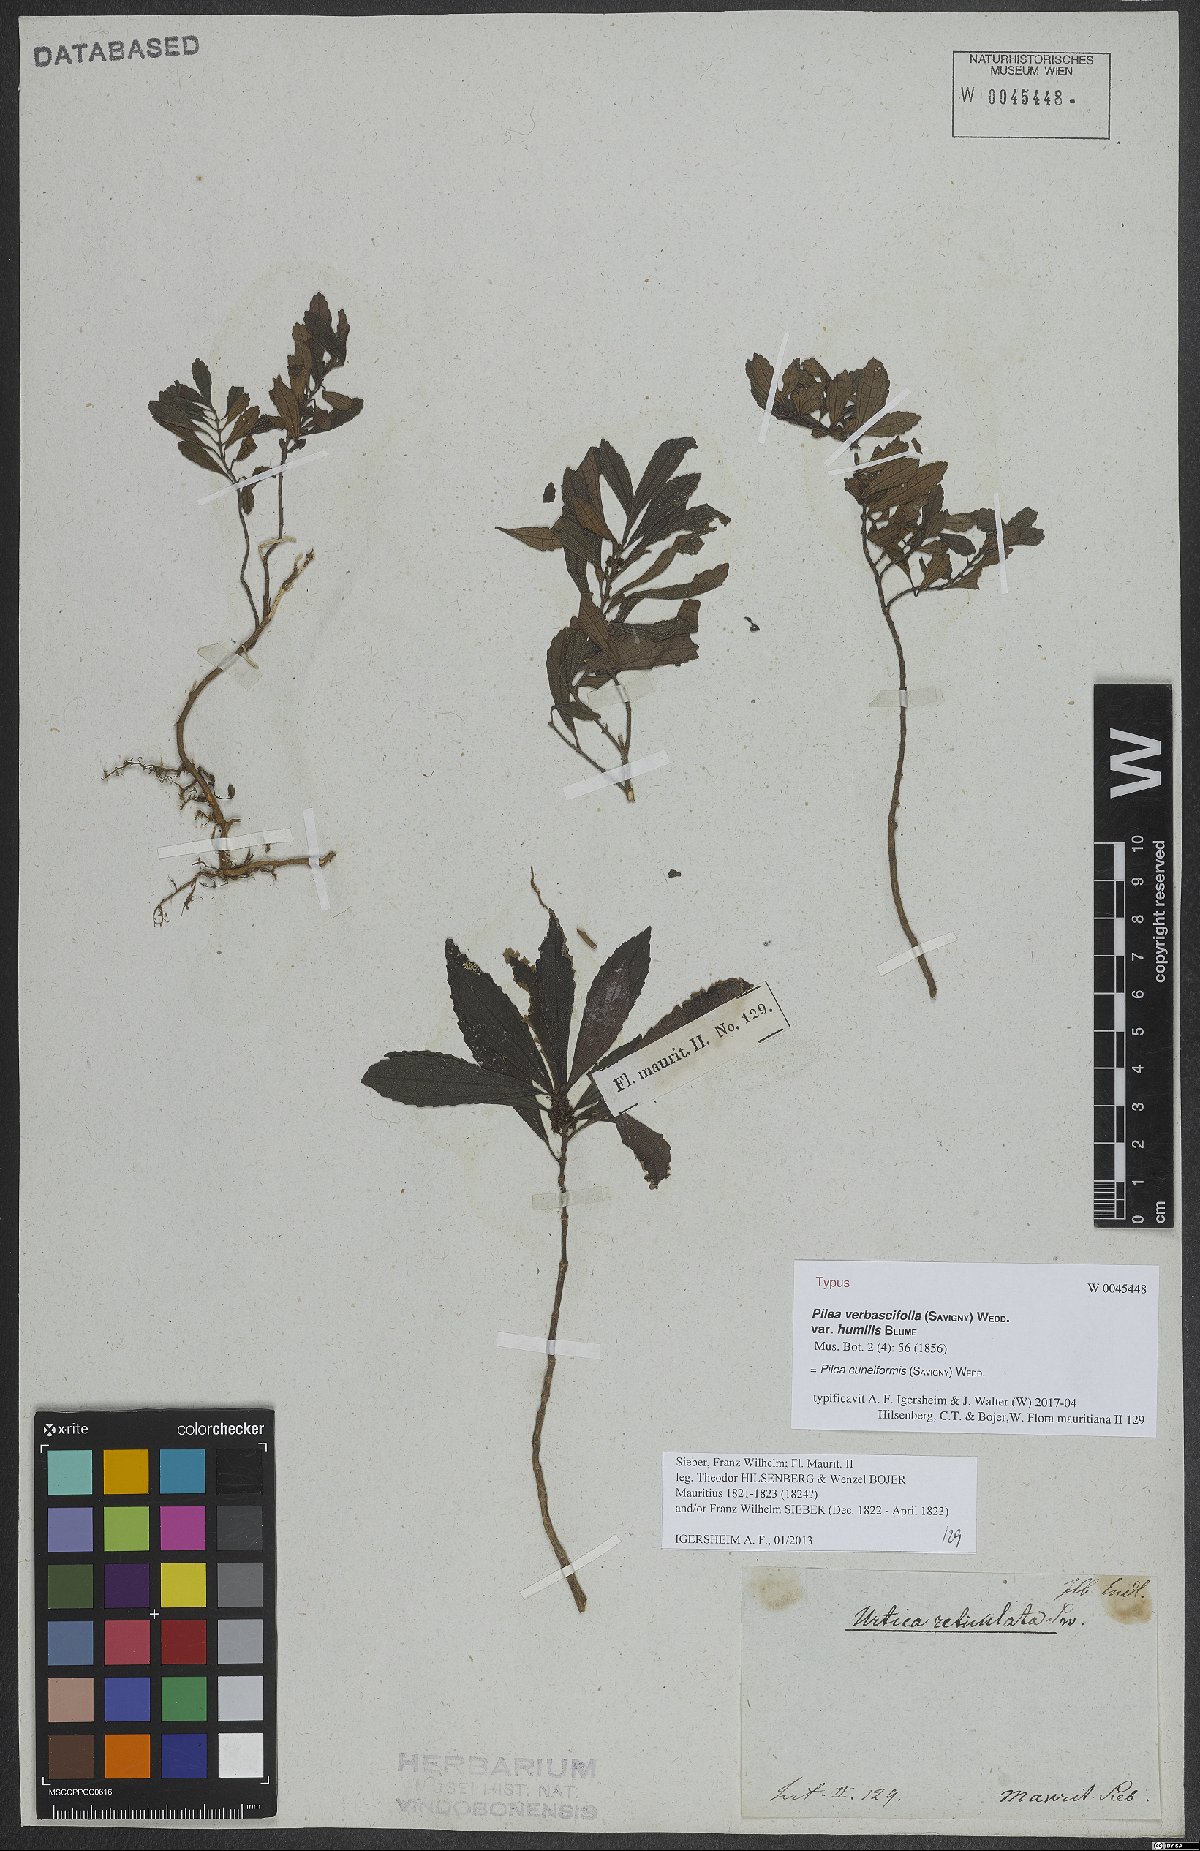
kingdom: Plantae
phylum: Tracheophyta
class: Magnoliopsida
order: Rosales
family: Urticaceae
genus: Pilea
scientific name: Pilea cuneiformis
